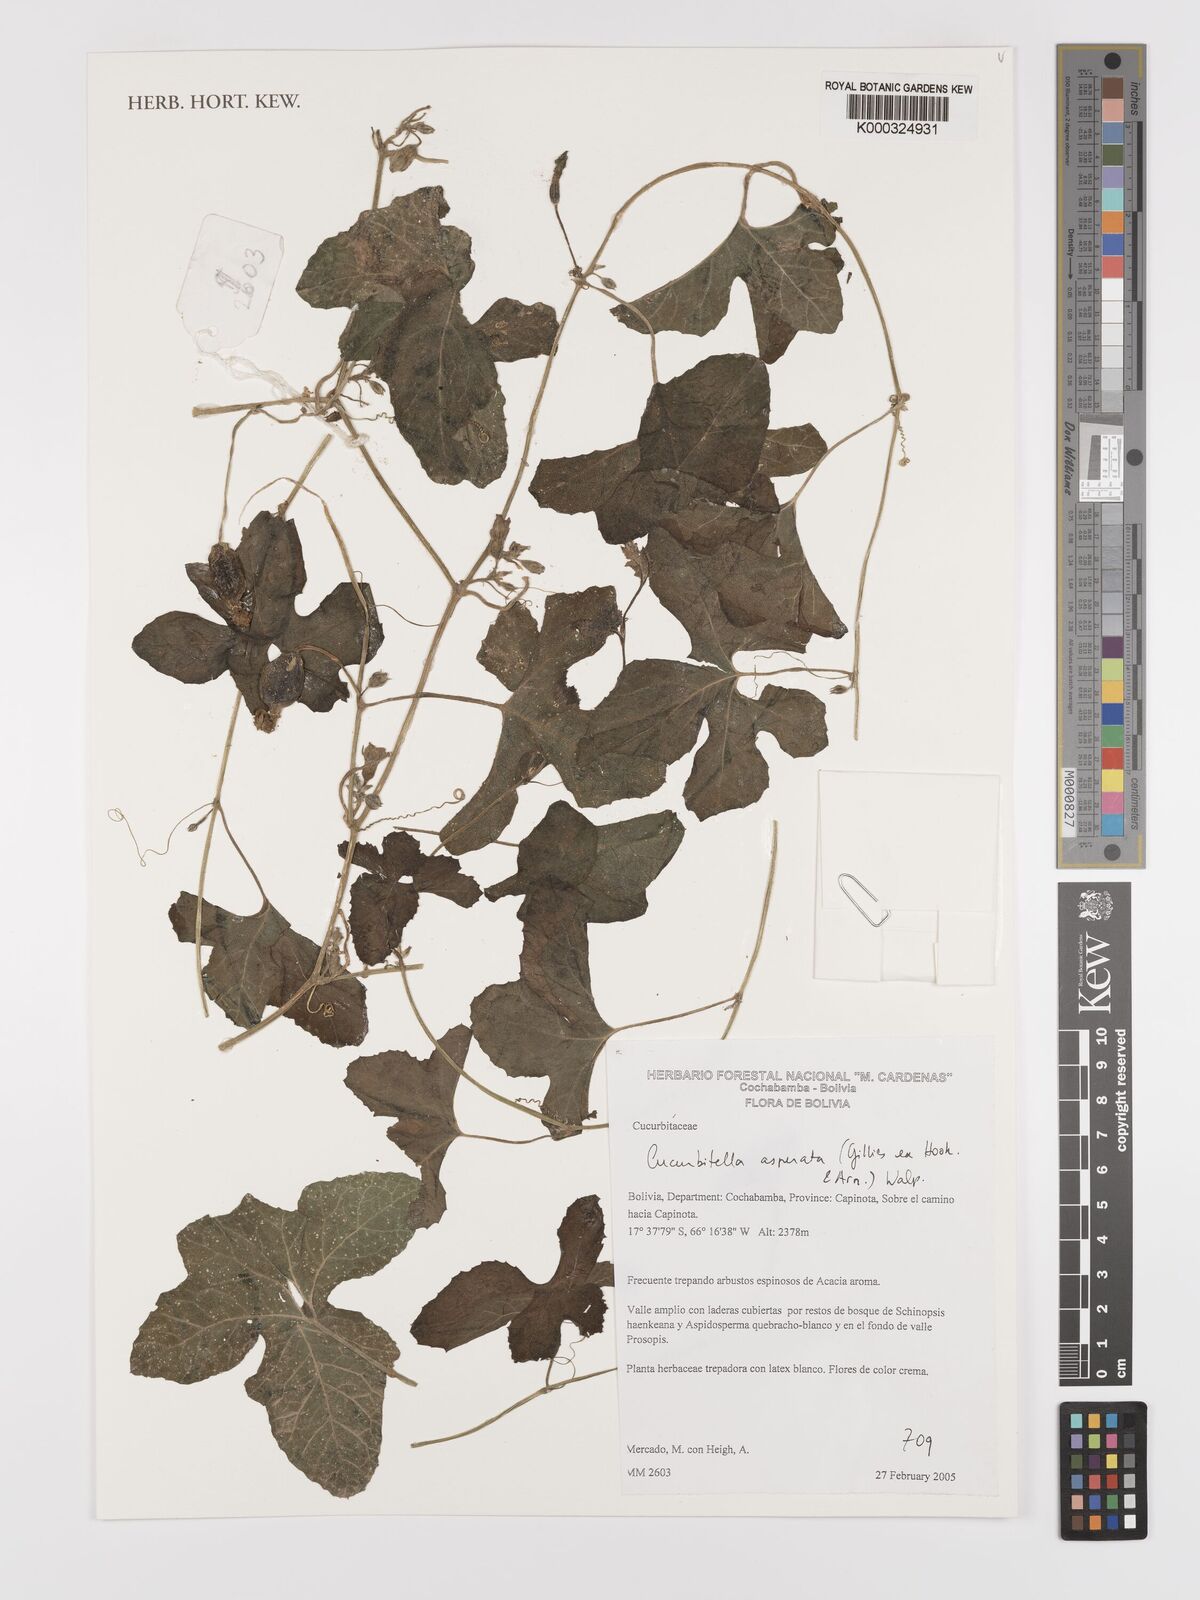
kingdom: Plantae
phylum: Tracheophyta
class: Magnoliopsida
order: Cucurbitales
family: Cucurbitaceae
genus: Cucurbitella
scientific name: Cucurbitella asperata
